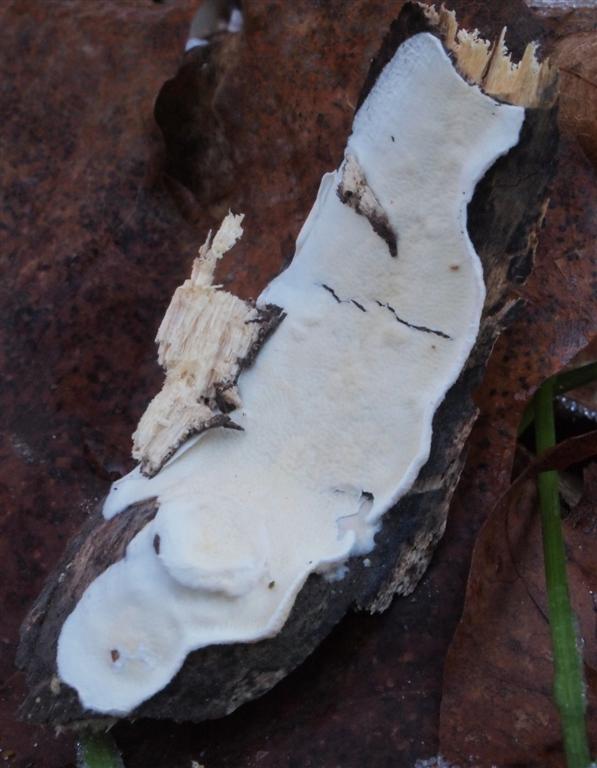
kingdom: Fungi
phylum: Basidiomycota
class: Agaricomycetes
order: Polyporales
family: Irpicaceae
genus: Byssomerulius
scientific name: Byssomerulius corium
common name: læder-åresvamp
